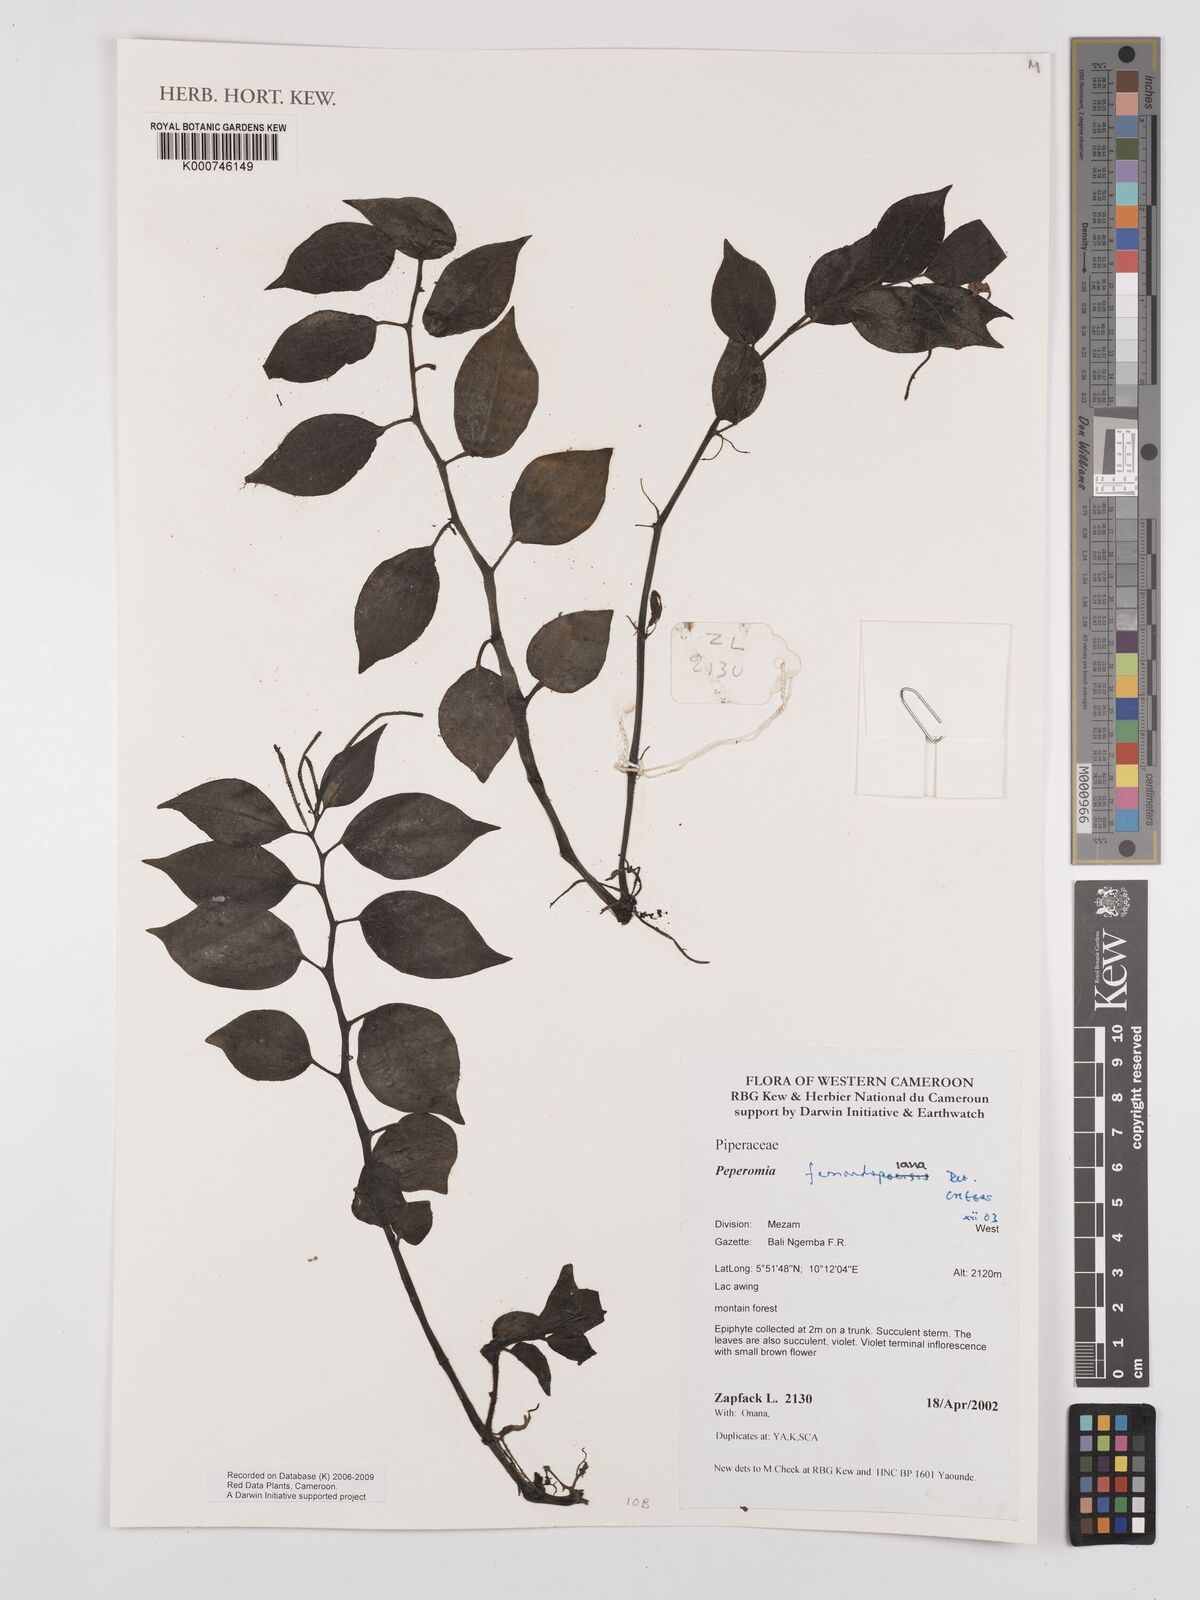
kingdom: Plantae
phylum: Tracheophyta
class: Magnoliopsida
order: Piperales
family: Piperaceae
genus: Peperomia
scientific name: Peperomia fernandopoiana
